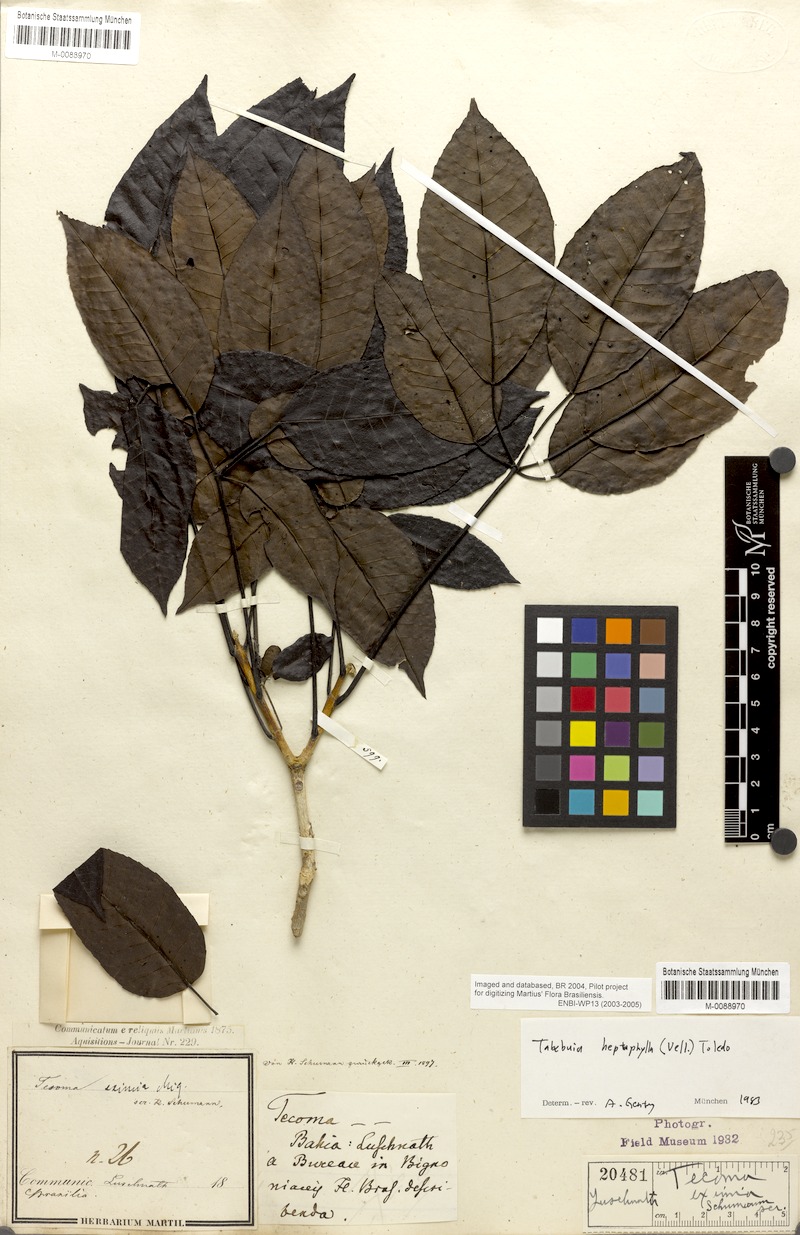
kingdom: Plantae
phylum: Tracheophyta
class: Magnoliopsida
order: Lamiales
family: Bignoniaceae
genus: Handroanthus
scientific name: Handroanthus heptaphyllus
